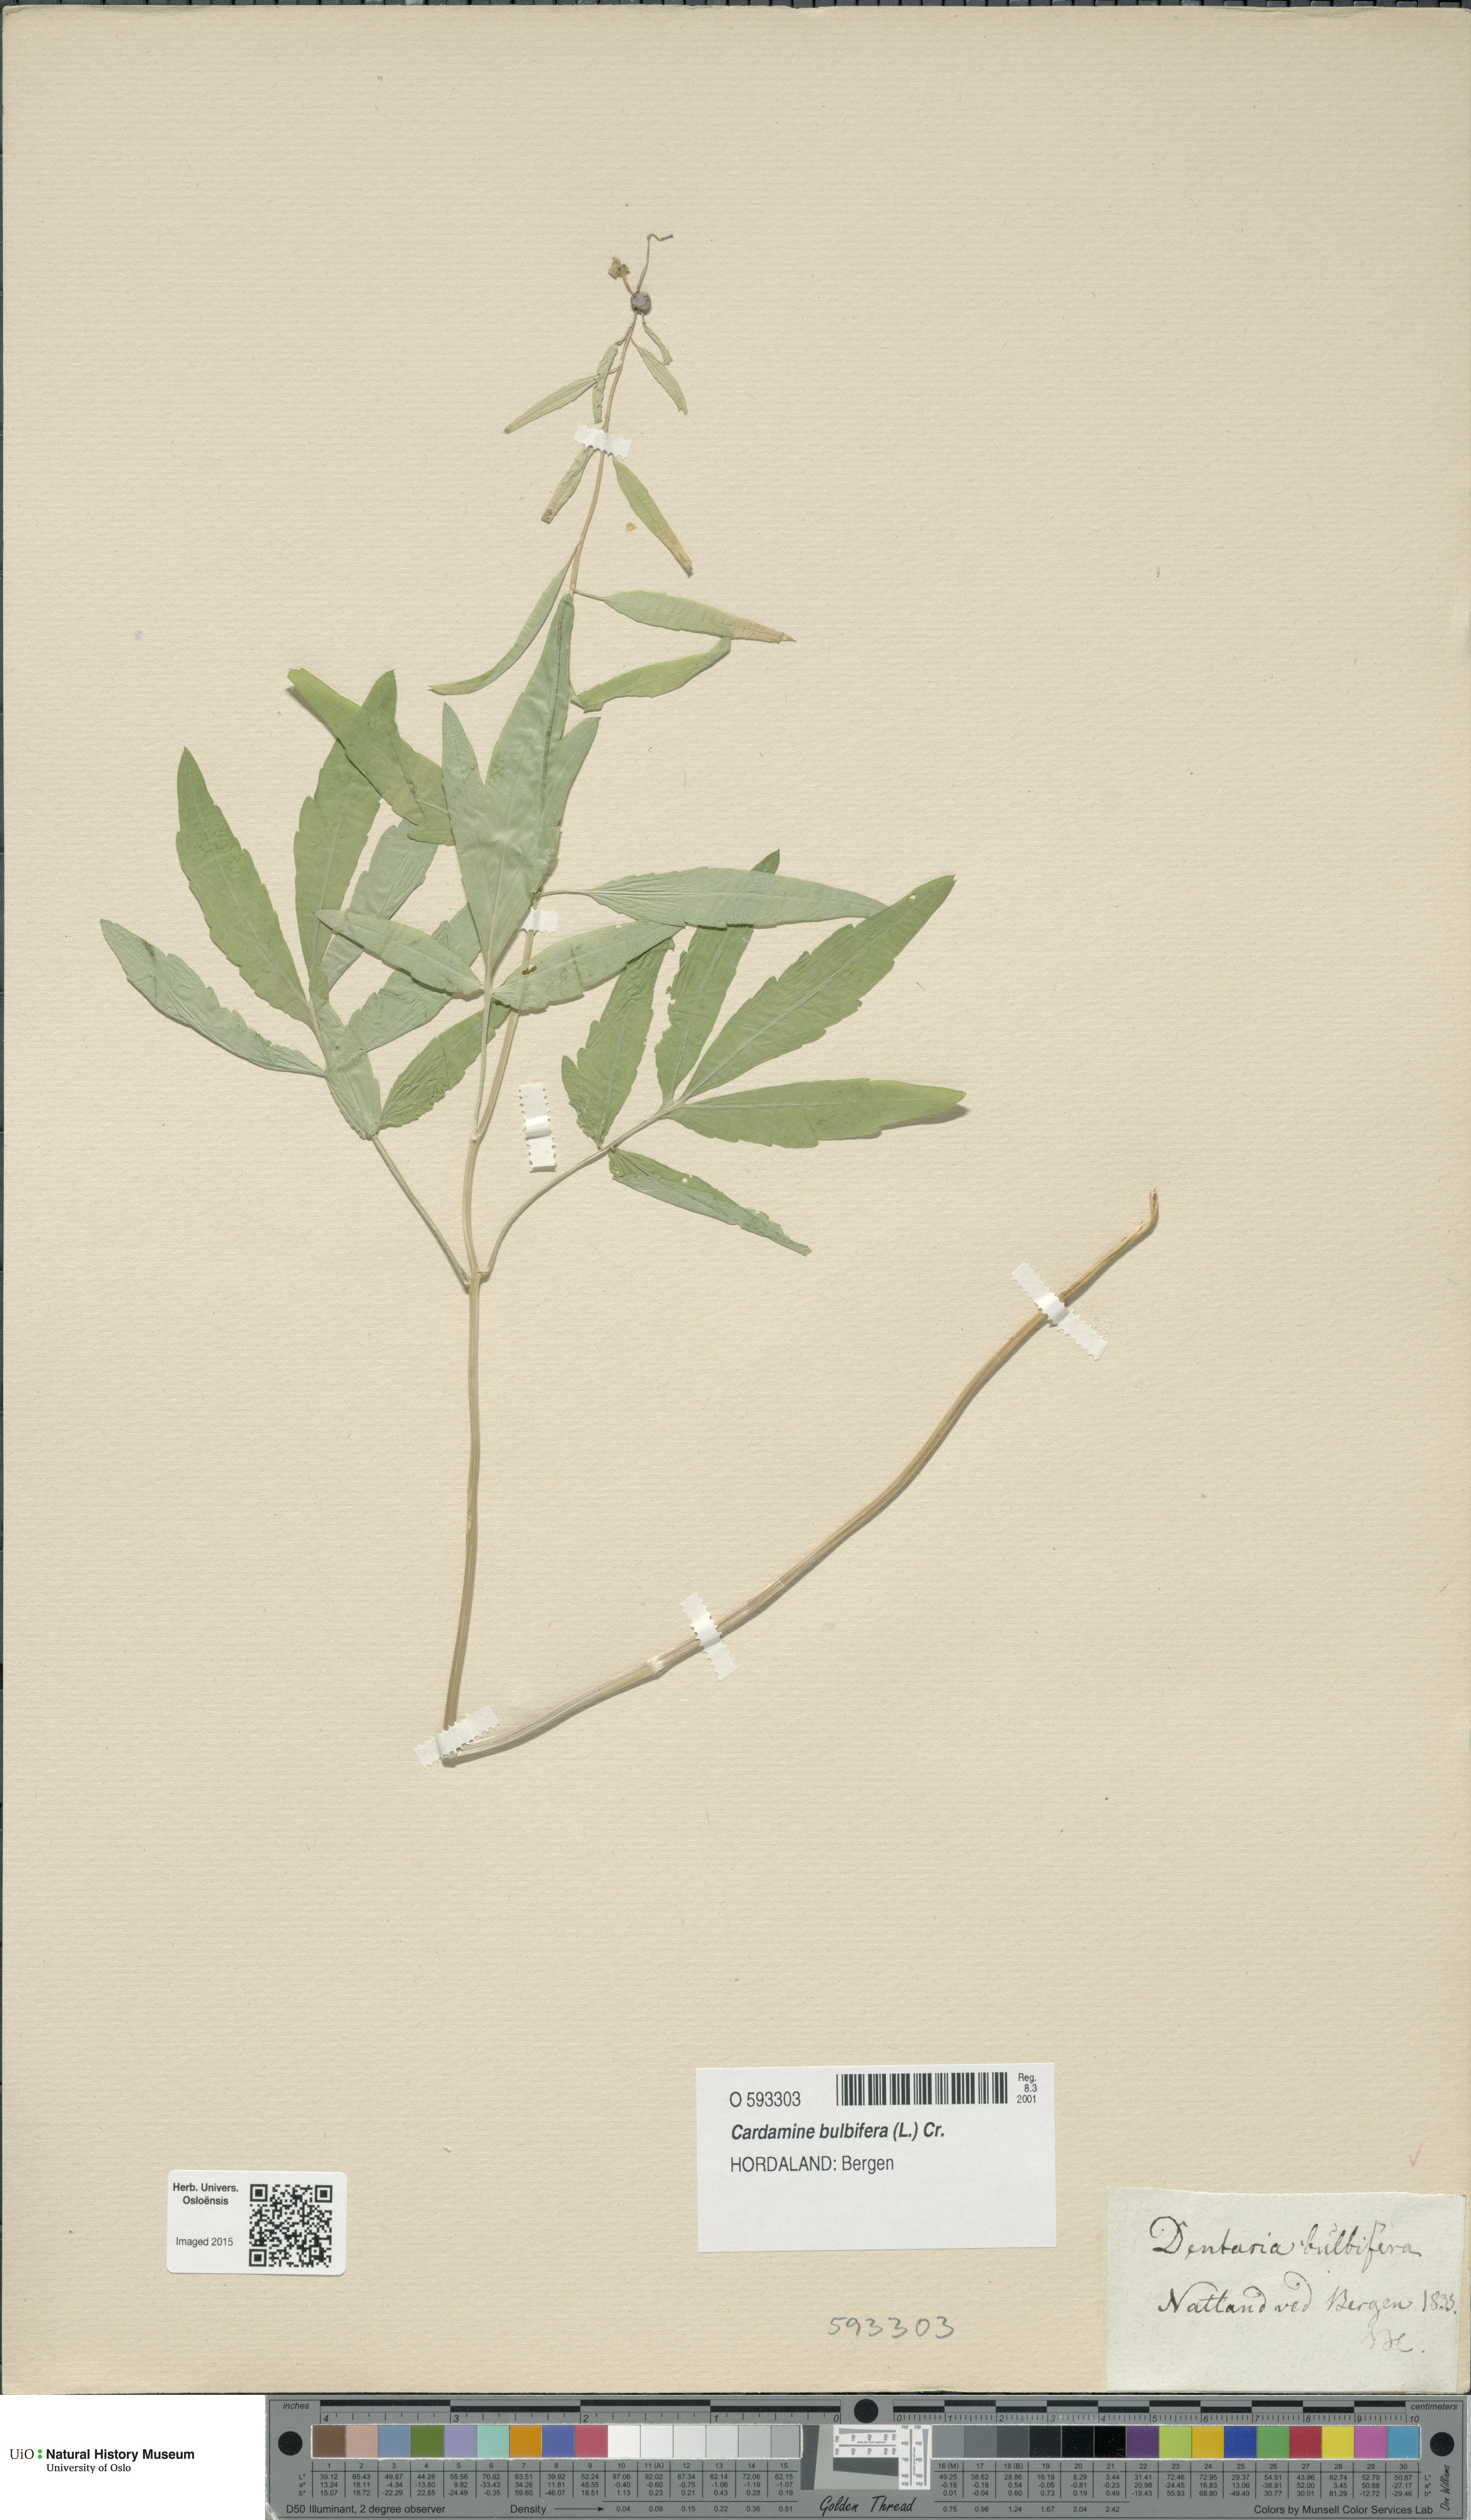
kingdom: Plantae
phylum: Tracheophyta
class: Magnoliopsida
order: Brassicales
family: Brassicaceae
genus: Cardamine
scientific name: Cardamine bulbifera
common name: Coralroot bittercress
